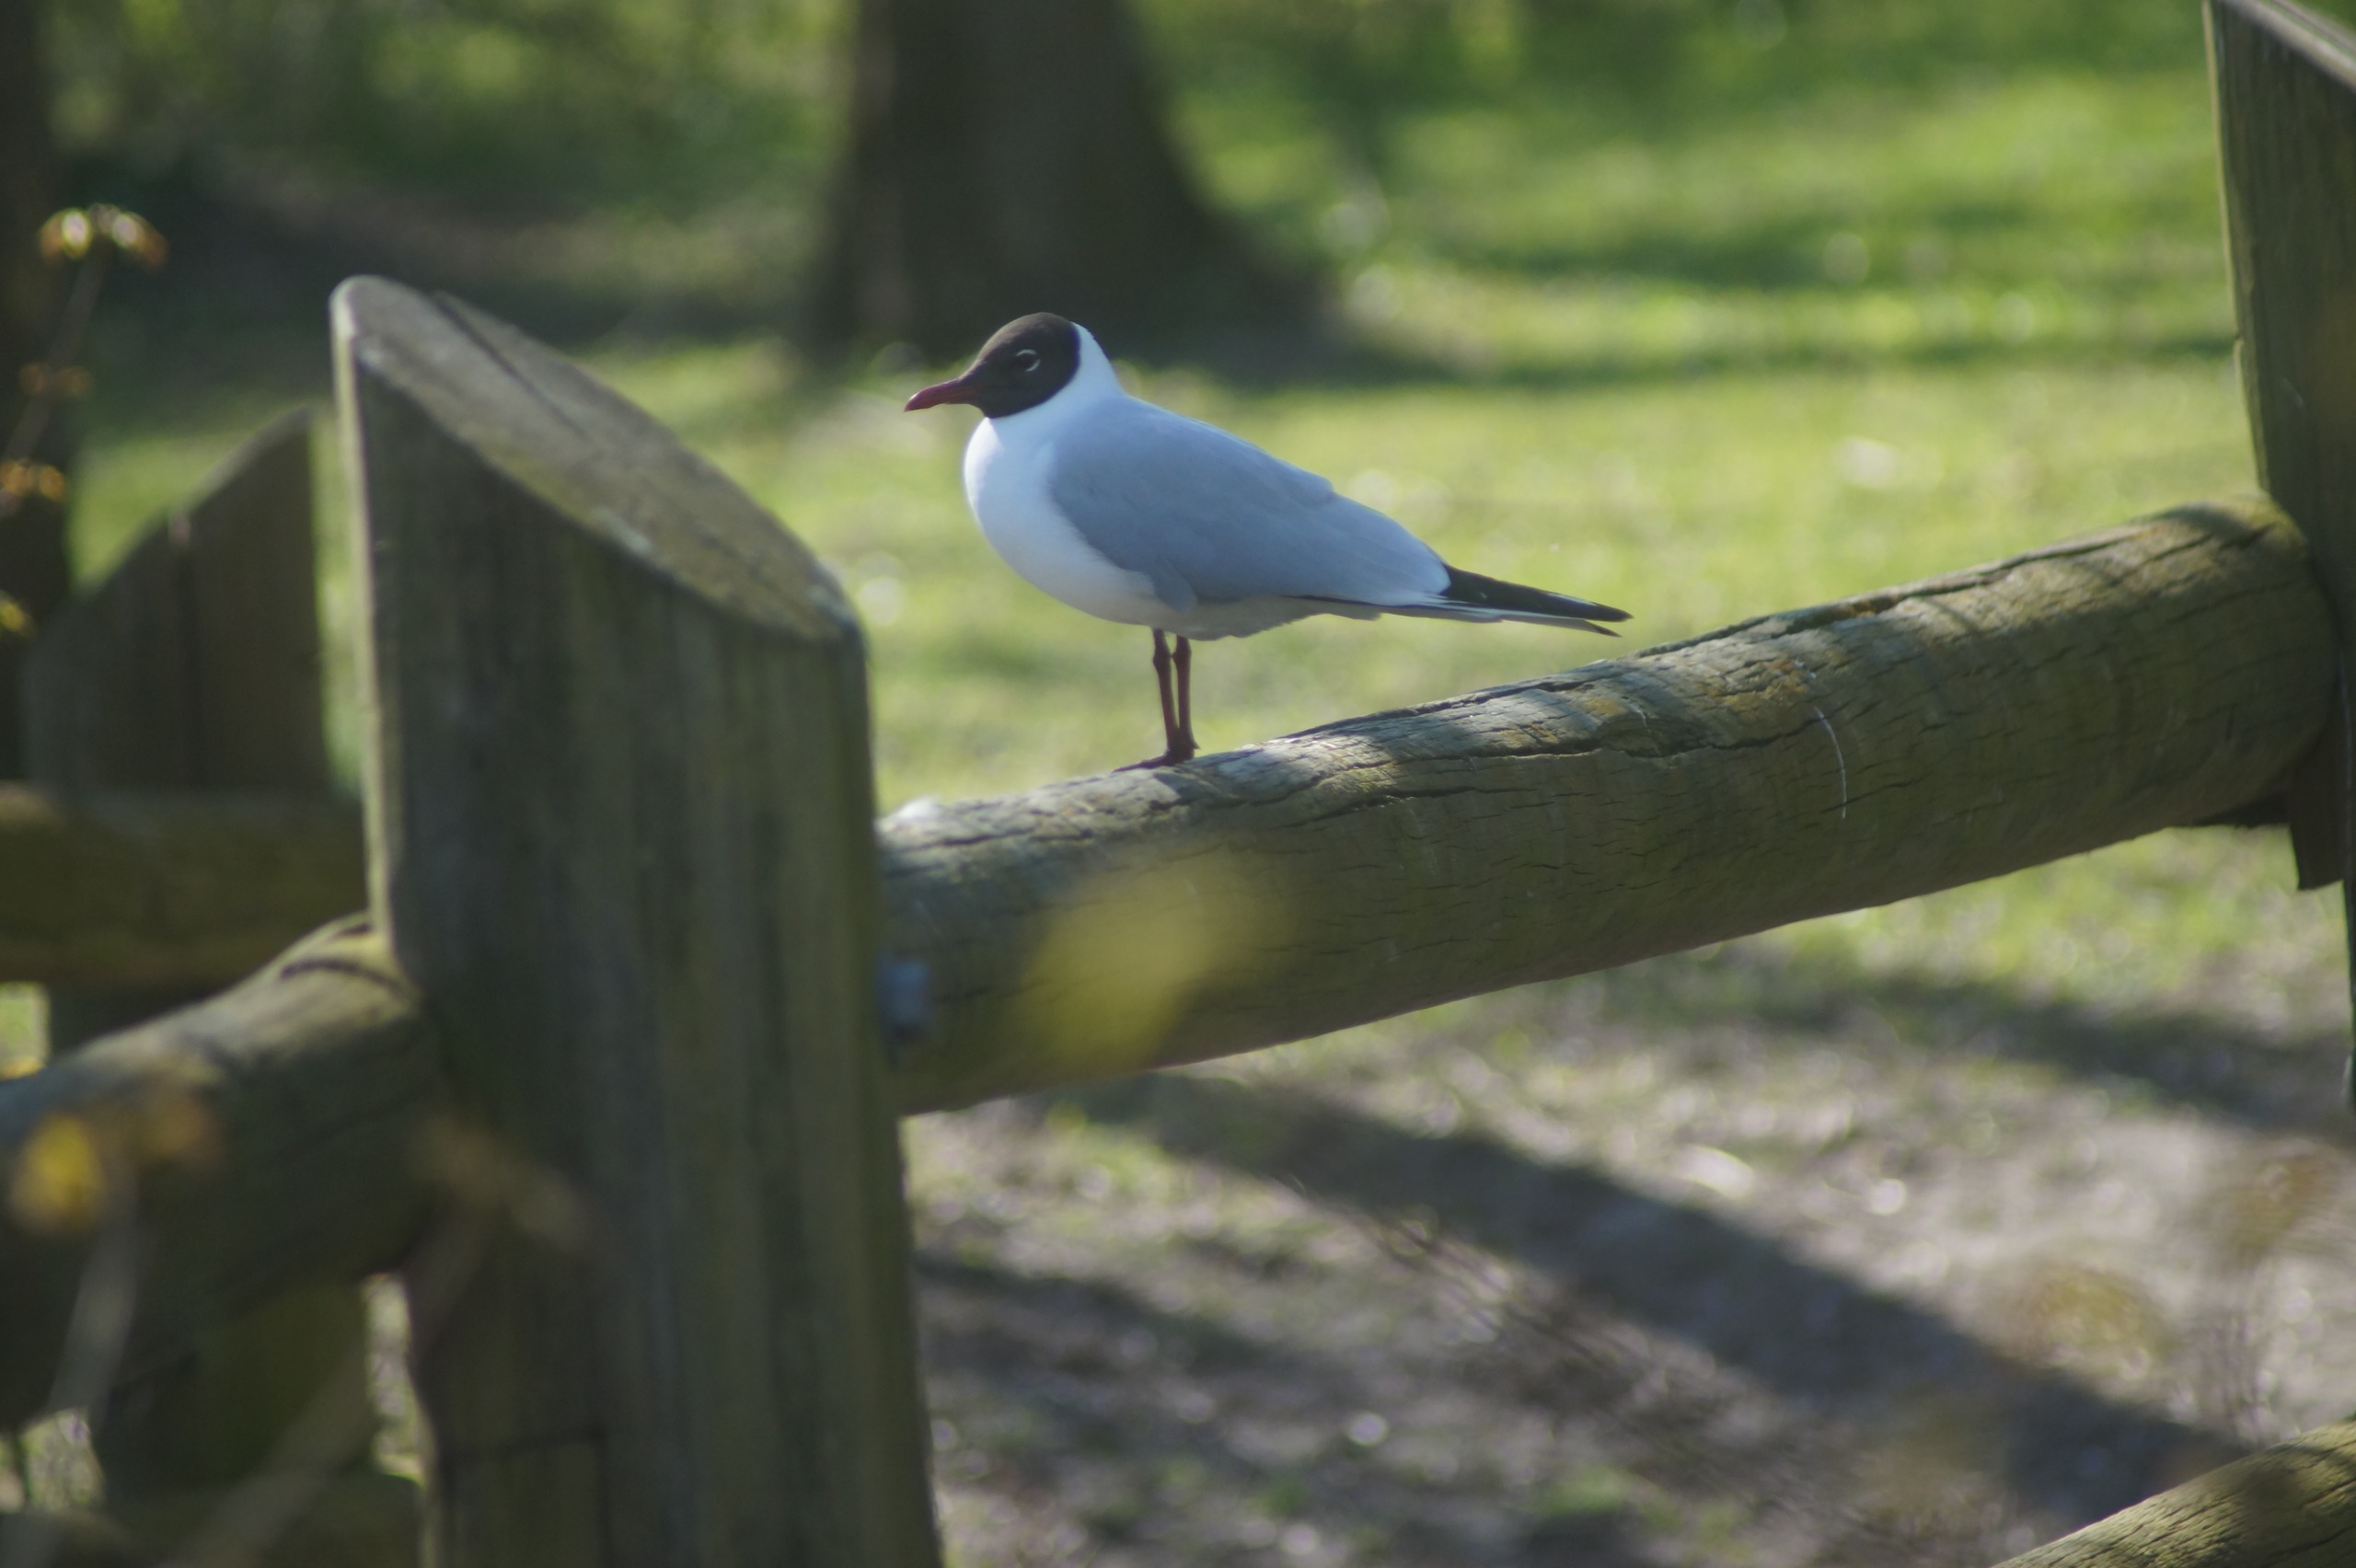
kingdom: Animalia
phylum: Chordata
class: Aves
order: Charadriiformes
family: Laridae
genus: Chroicocephalus
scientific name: Chroicocephalus ridibundus
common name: Hættemåge
